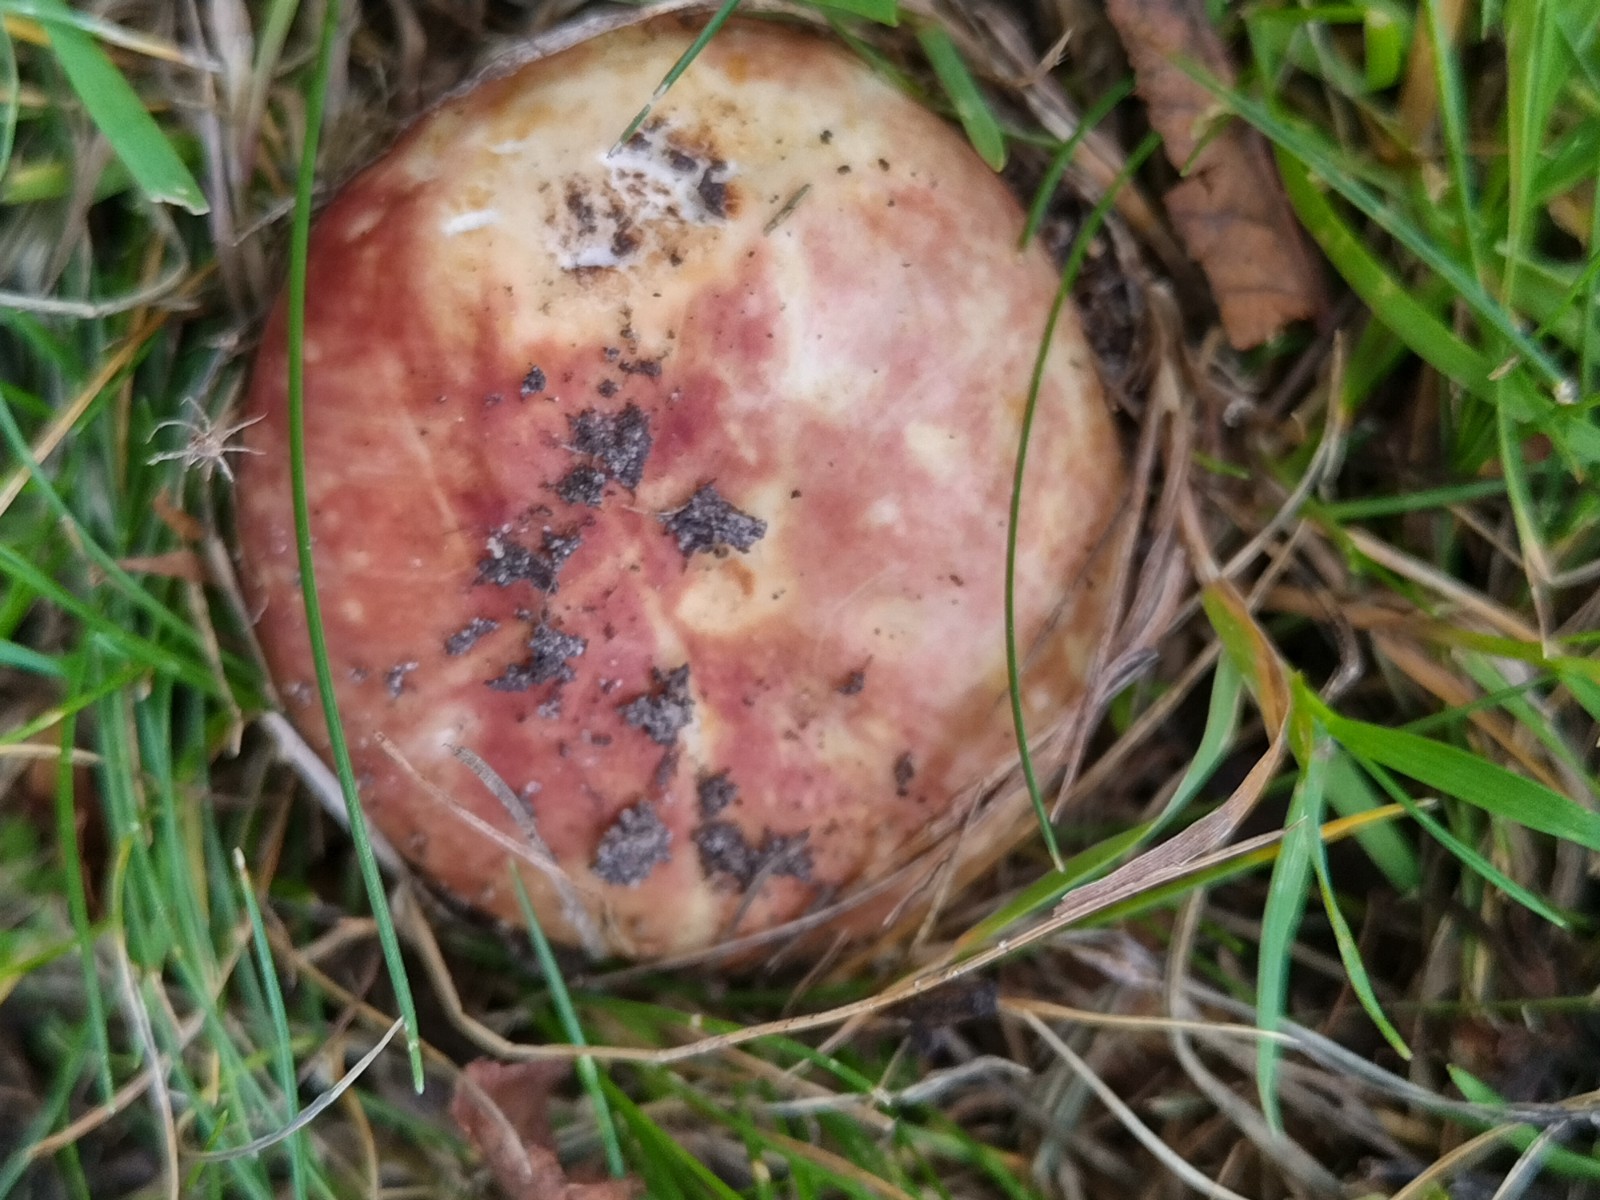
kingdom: Fungi
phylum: Basidiomycota
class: Agaricomycetes
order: Russulales
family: Russulaceae
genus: Russula
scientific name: Russula seperina
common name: rødmende skørhat
